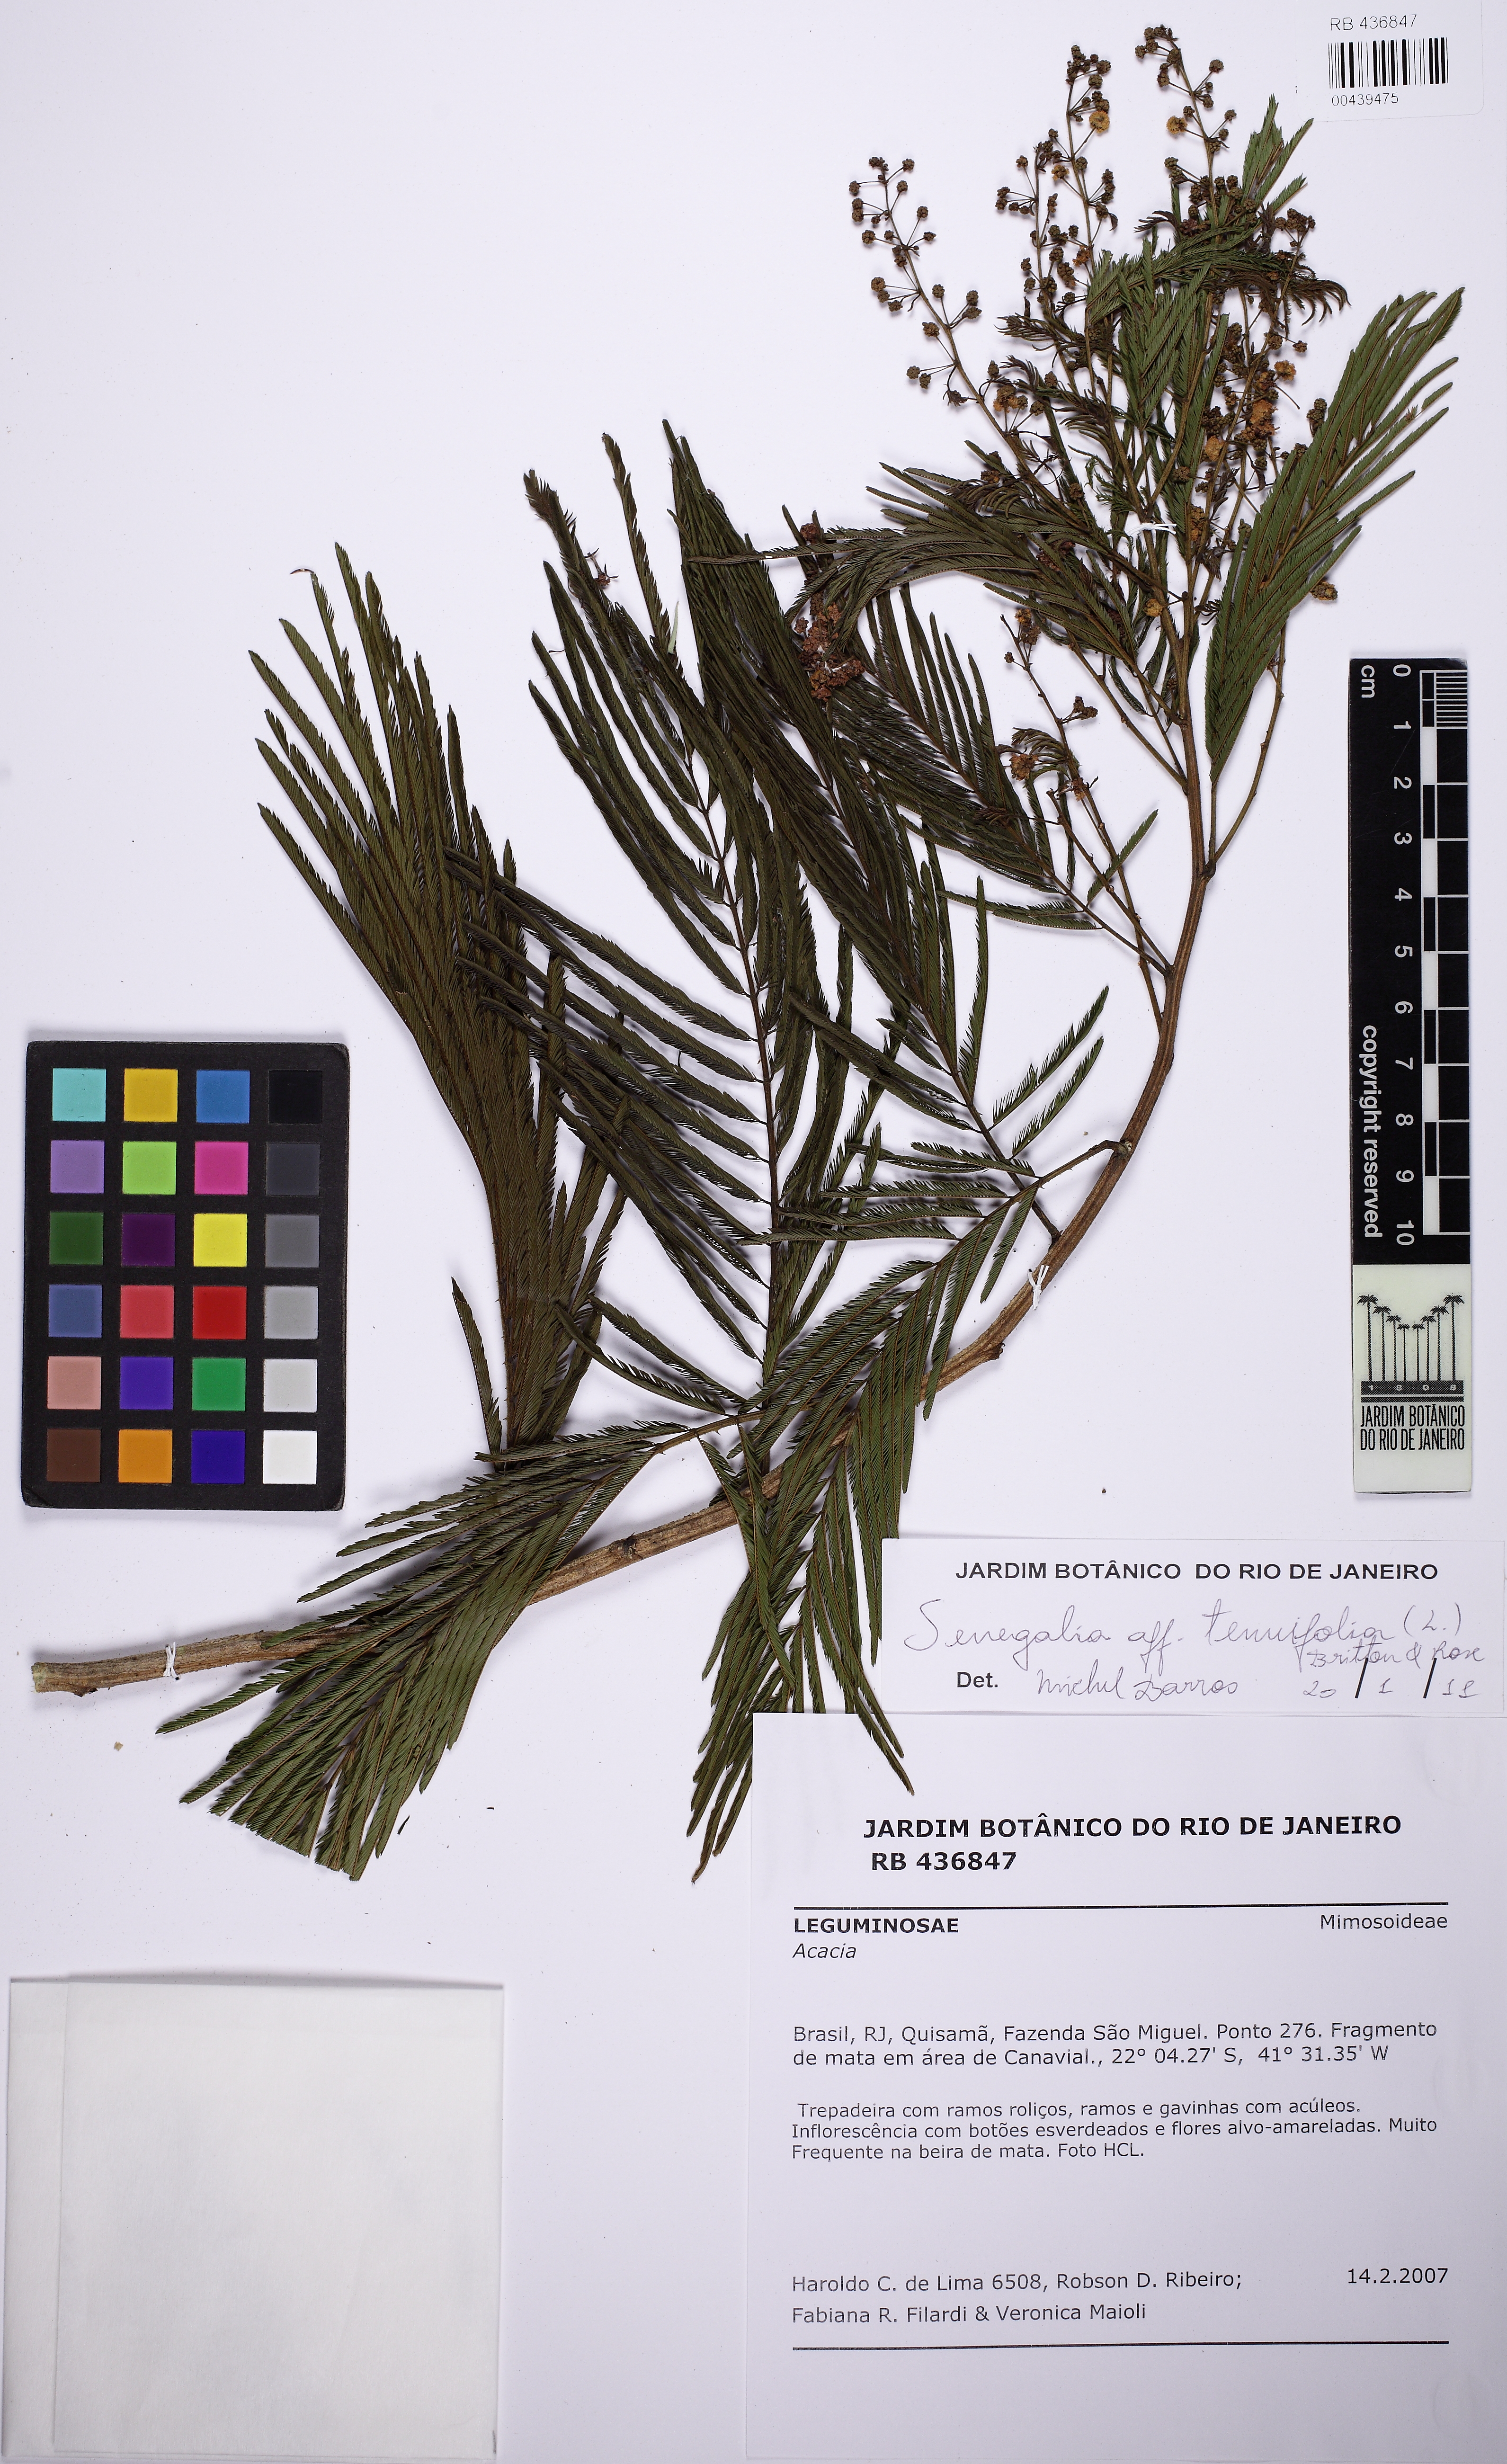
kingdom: Plantae
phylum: Tracheophyta
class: Magnoliopsida
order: Fabales
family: Fabaceae
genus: Senegalia
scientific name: Senegalia paniculata
